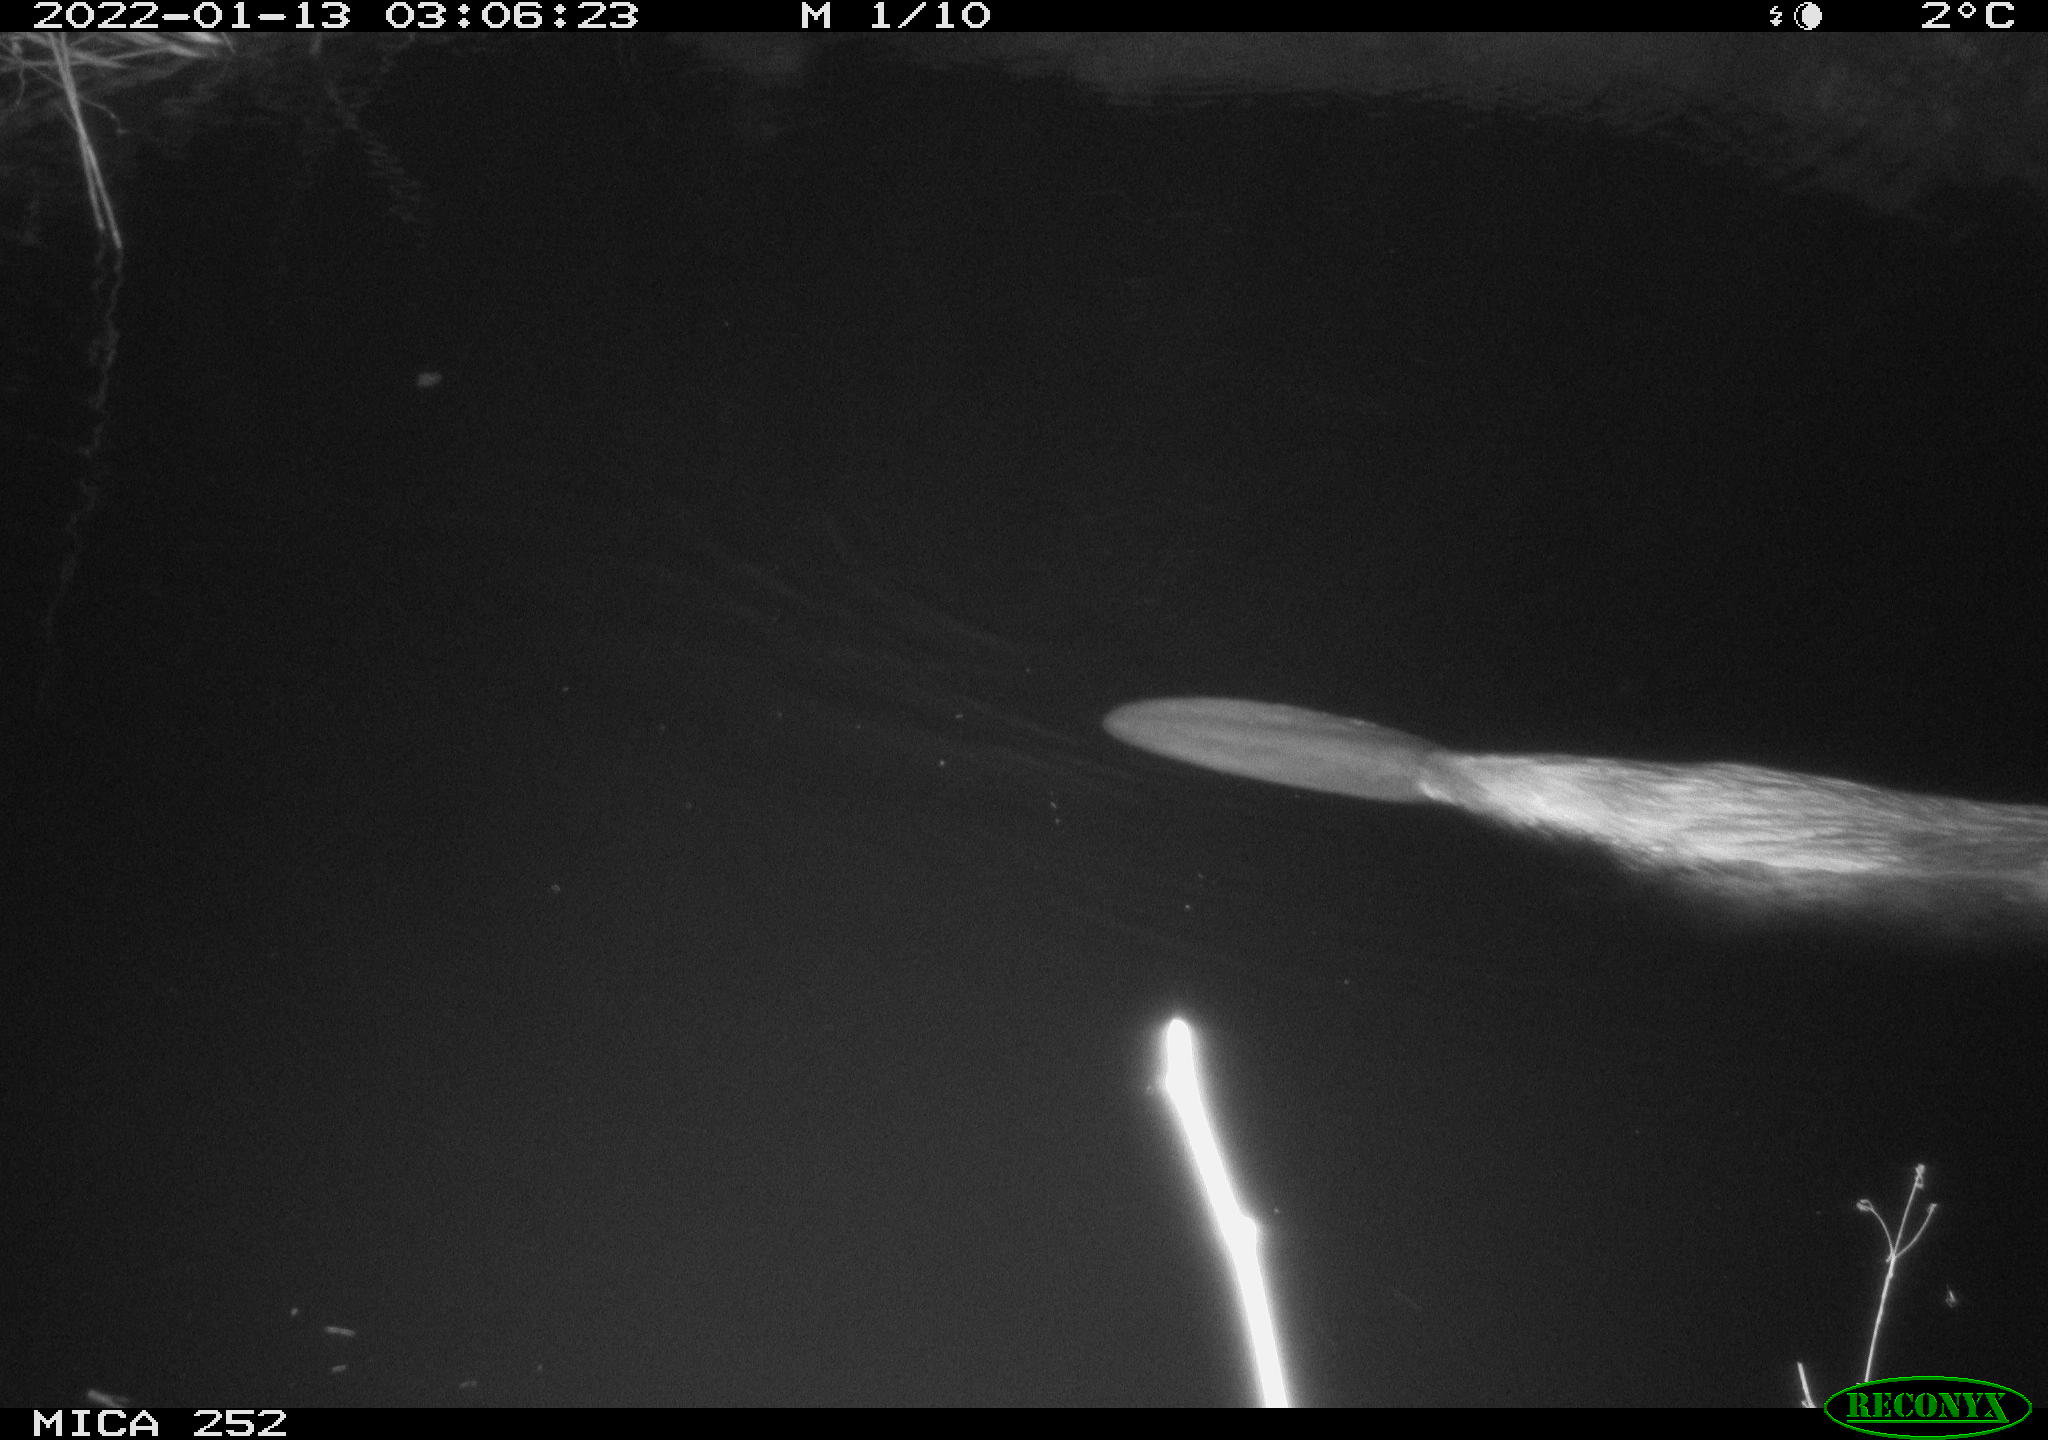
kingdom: Animalia
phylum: Chordata
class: Mammalia
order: Rodentia
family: Castoridae
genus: Castor
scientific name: Castor fiber
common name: Eurasian beaver
